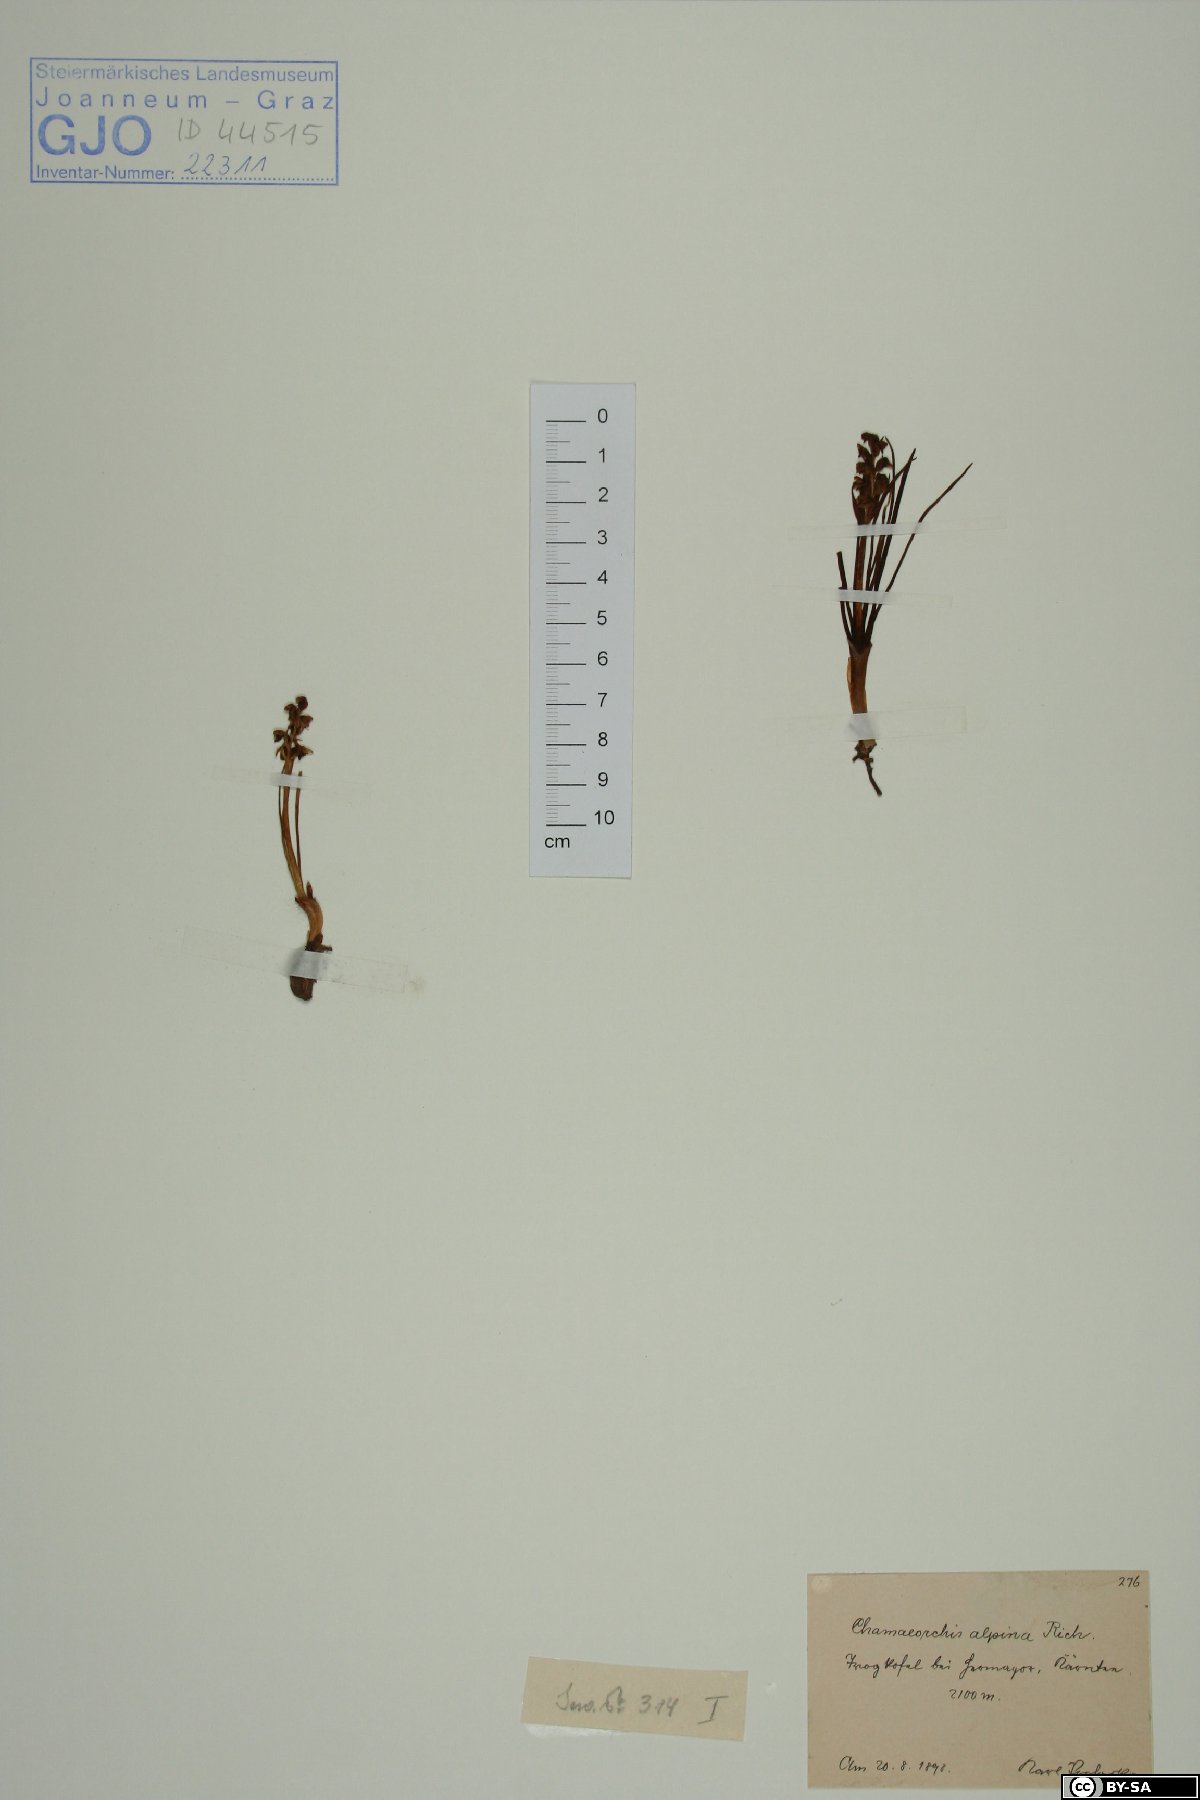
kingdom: Plantae
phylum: Tracheophyta
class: Liliopsida
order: Asparagales
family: Orchidaceae
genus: Chamorchis
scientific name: Chamorchis alpina
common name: Alpine chamorchis
